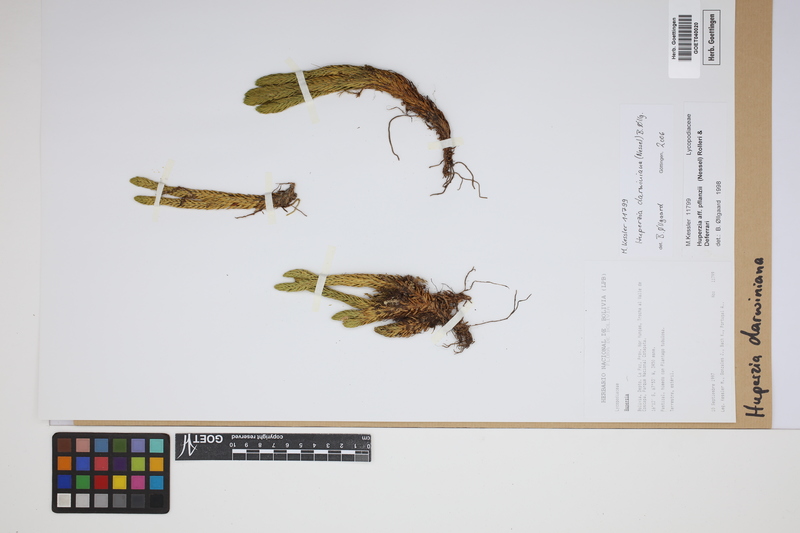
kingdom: Plantae
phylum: Tracheophyta
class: Lycopodiopsida
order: Lycopodiales
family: Lycopodiaceae
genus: Phlegmariurus
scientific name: Phlegmariurus darwinianus
